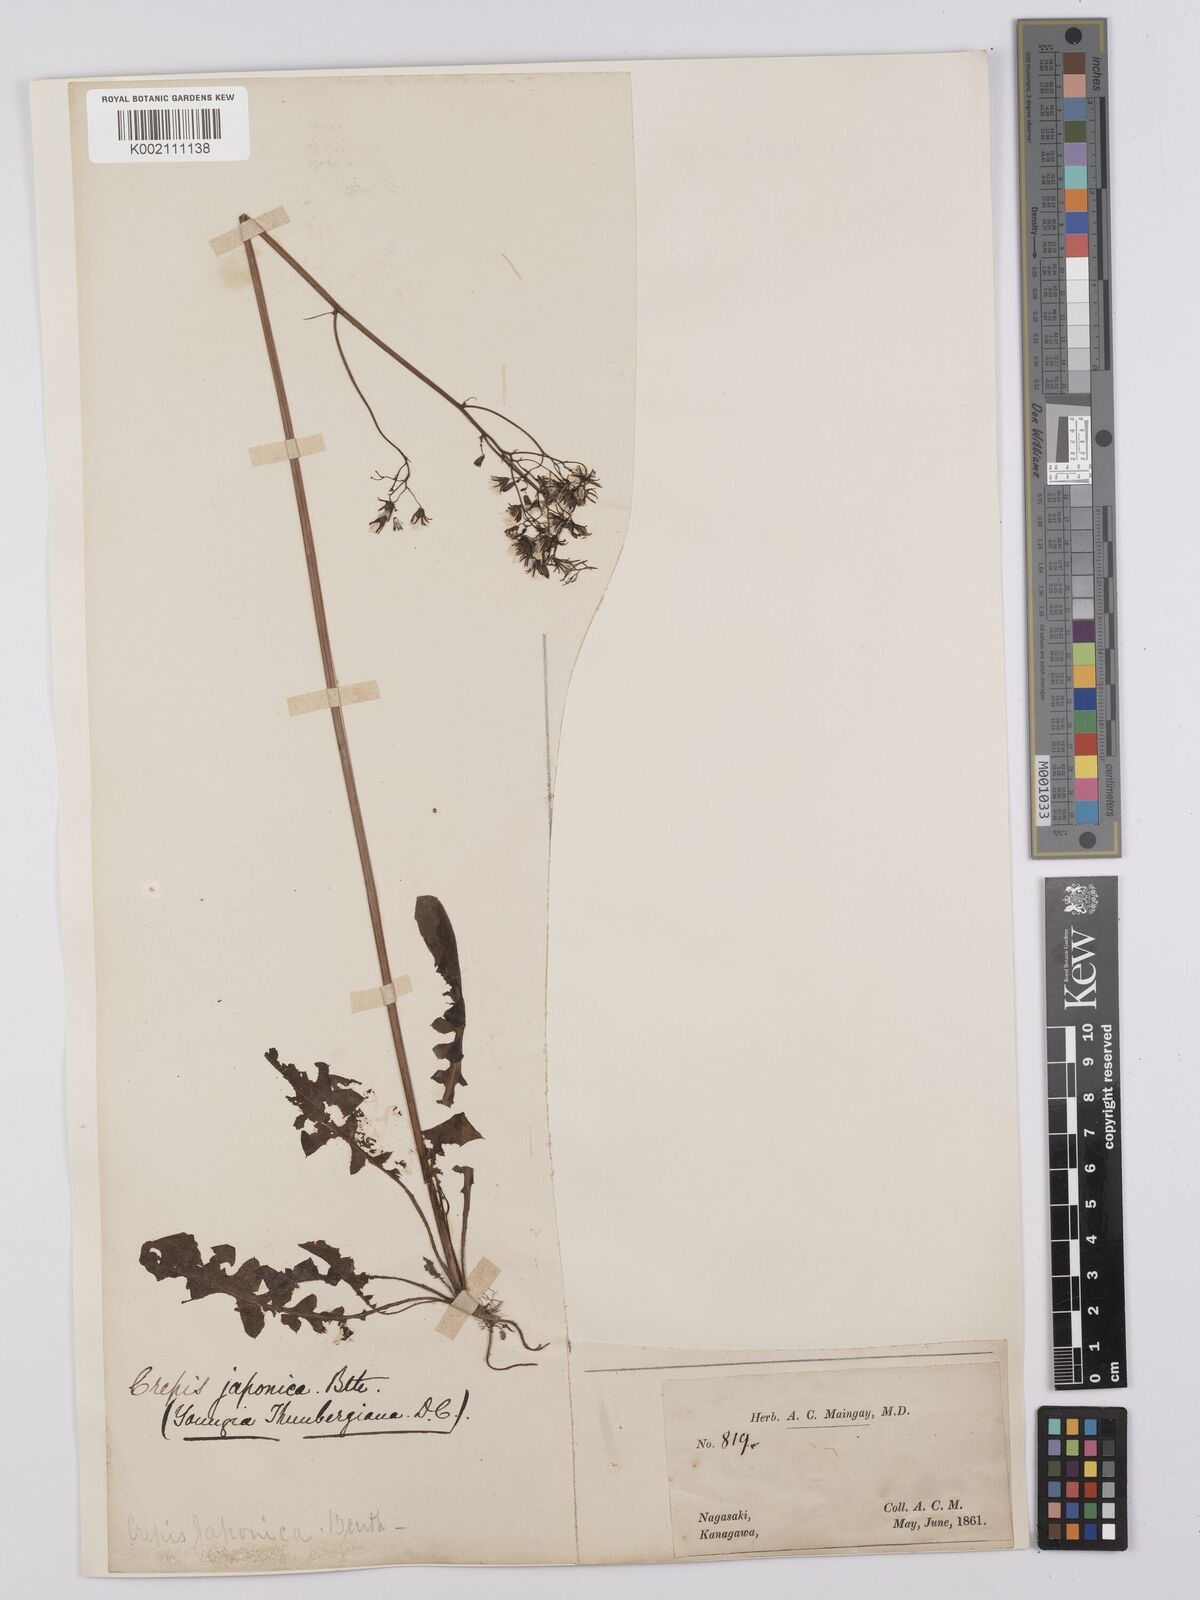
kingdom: Plantae
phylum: Tracheophyta
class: Magnoliopsida
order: Asterales
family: Asteraceae
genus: Youngia
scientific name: Youngia japonica
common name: Oriental false hawksbeard
